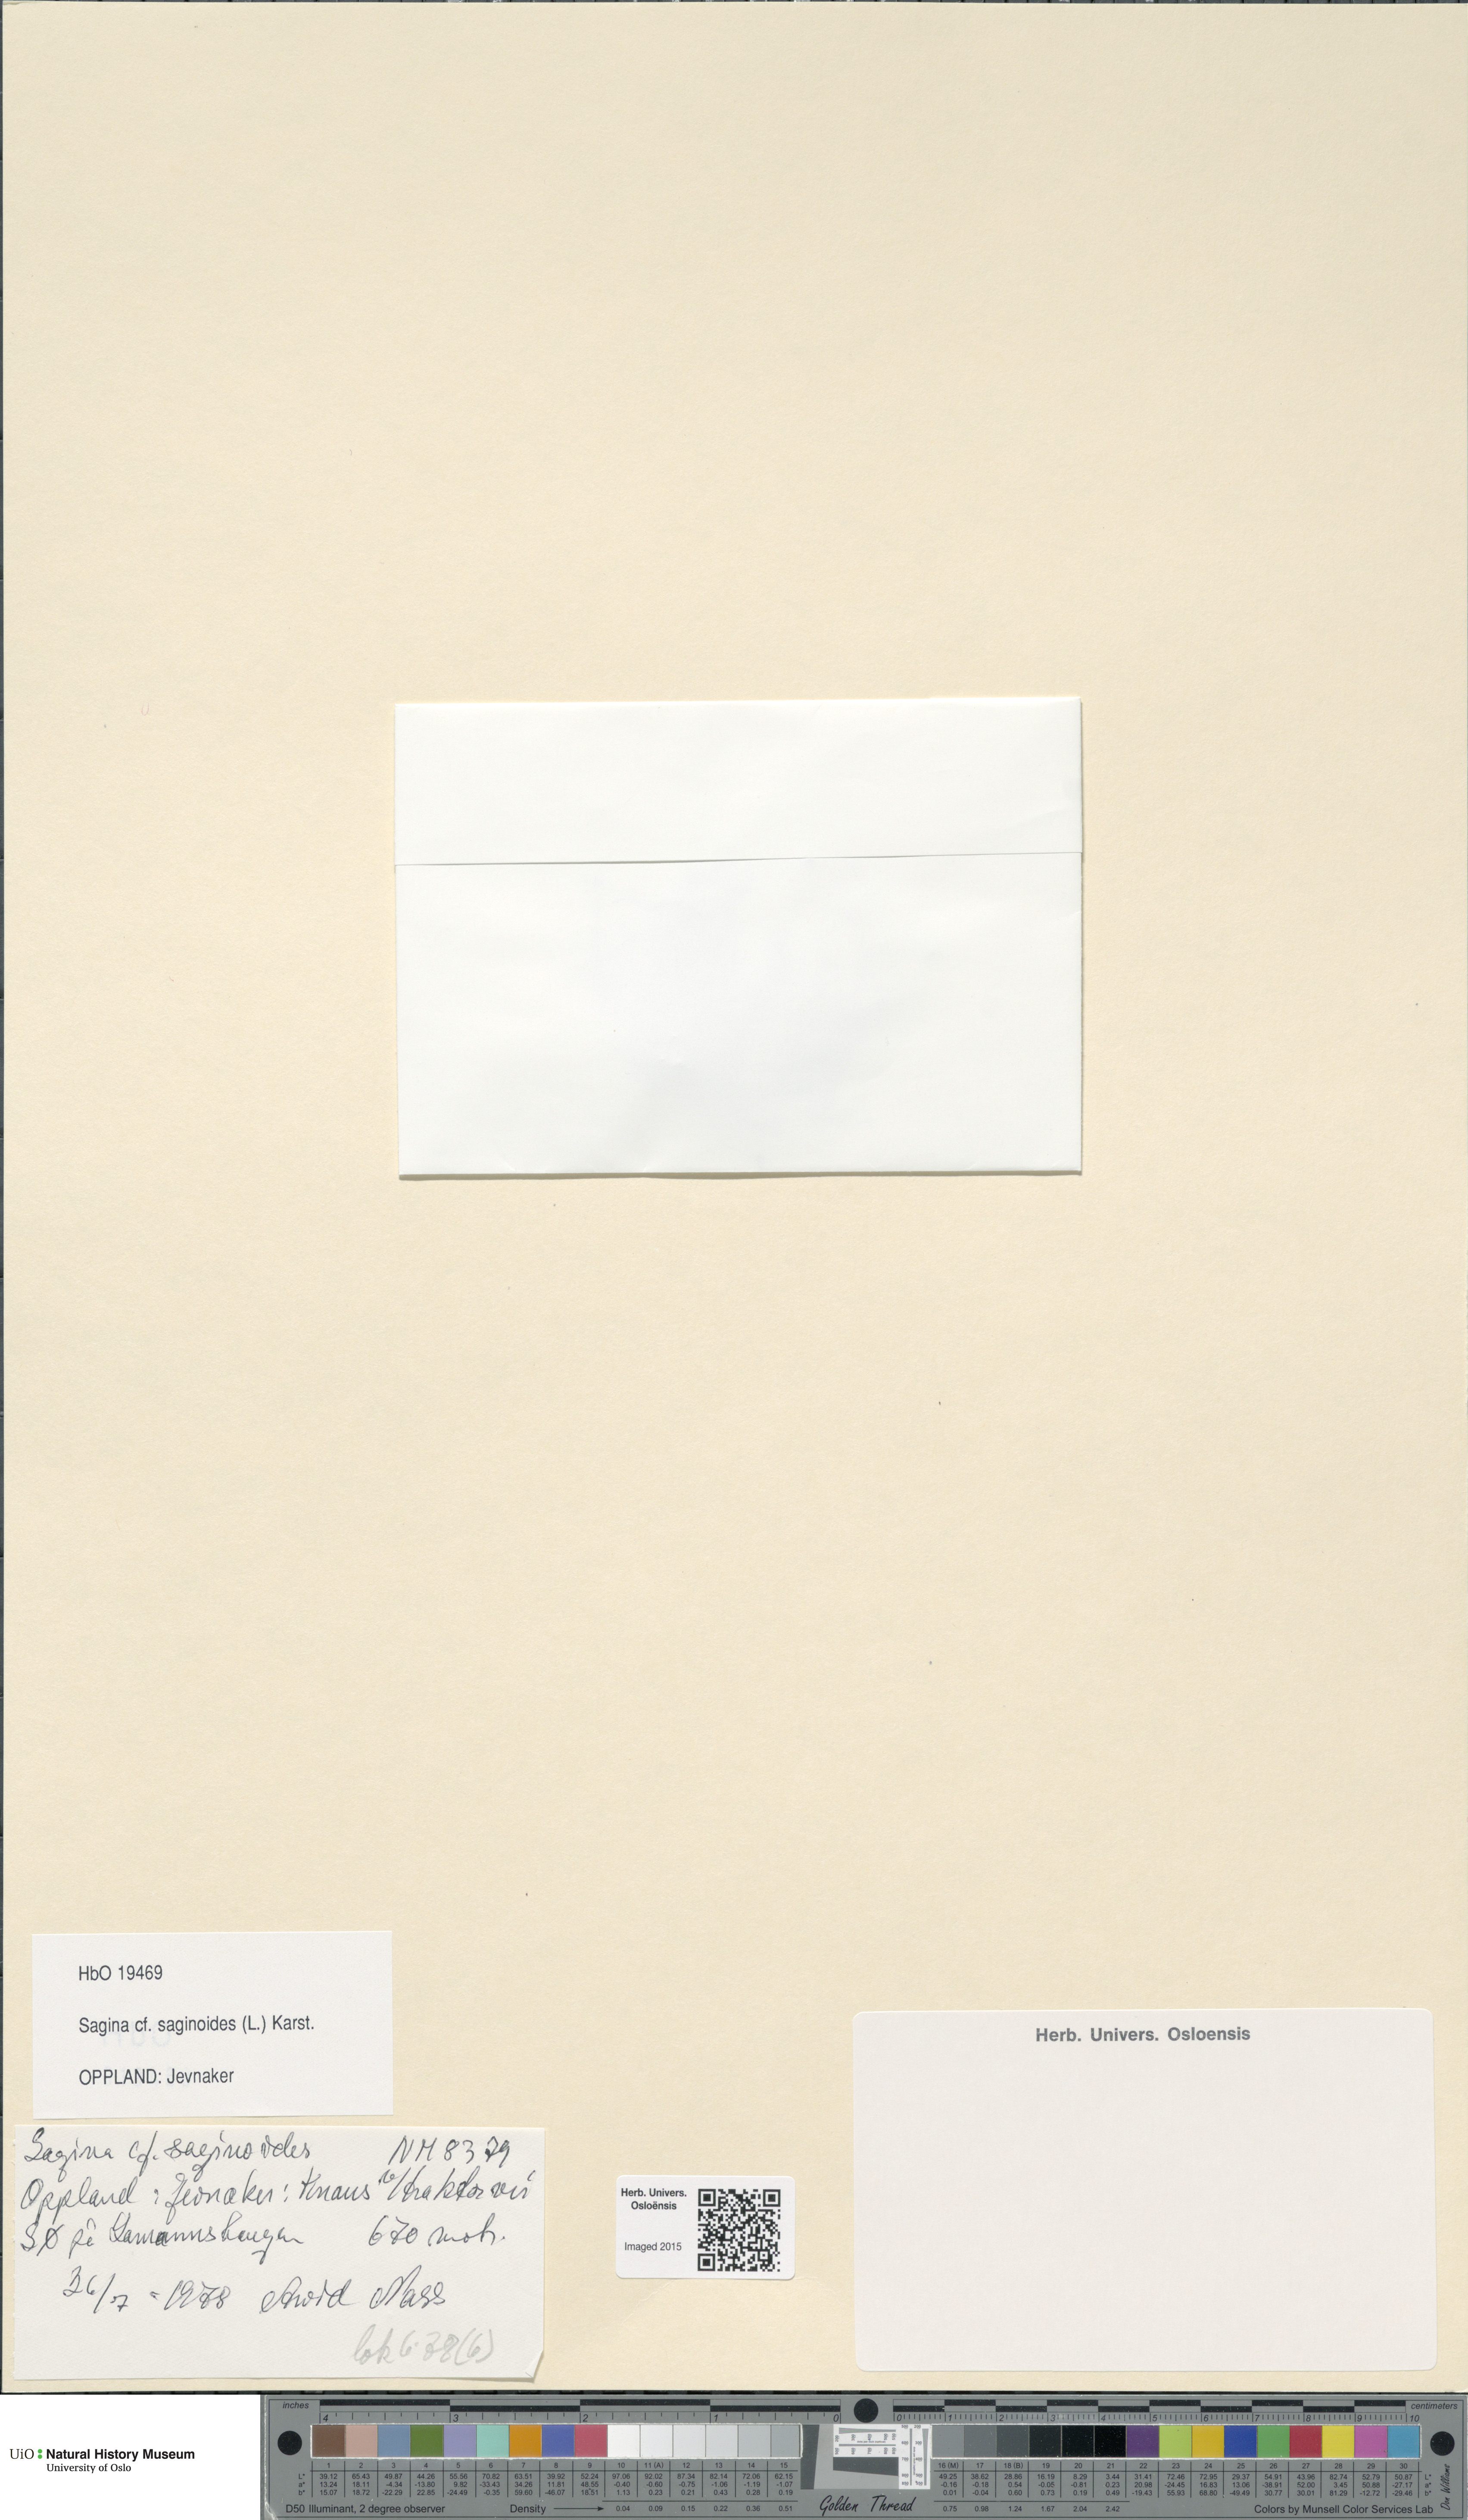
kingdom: Plantae
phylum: Tracheophyta
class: Magnoliopsida
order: Caryophyllales
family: Caryophyllaceae
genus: Sagina
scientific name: Sagina saginoides
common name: Alpine pearlwort
